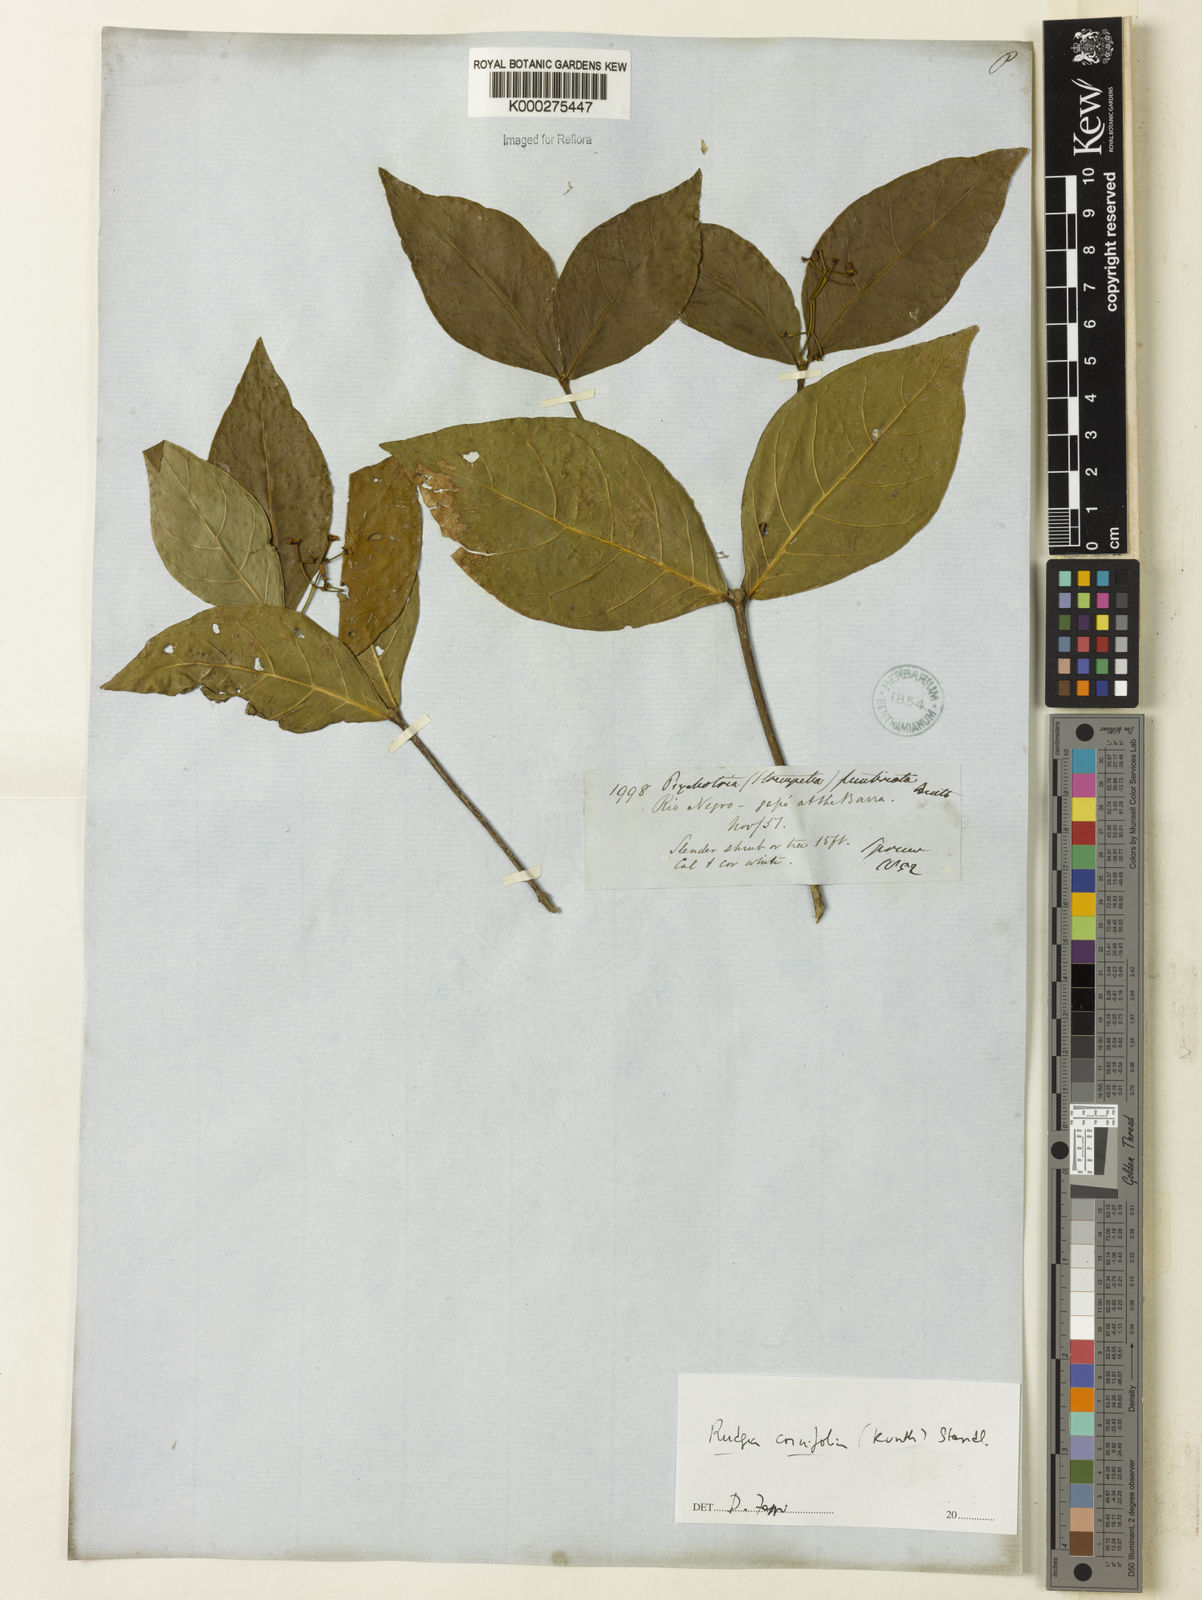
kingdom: Plantae
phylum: Tracheophyta
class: Magnoliopsida
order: Gentianales
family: Rubiaceae
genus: Rudgea
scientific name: Rudgea cornifolia
